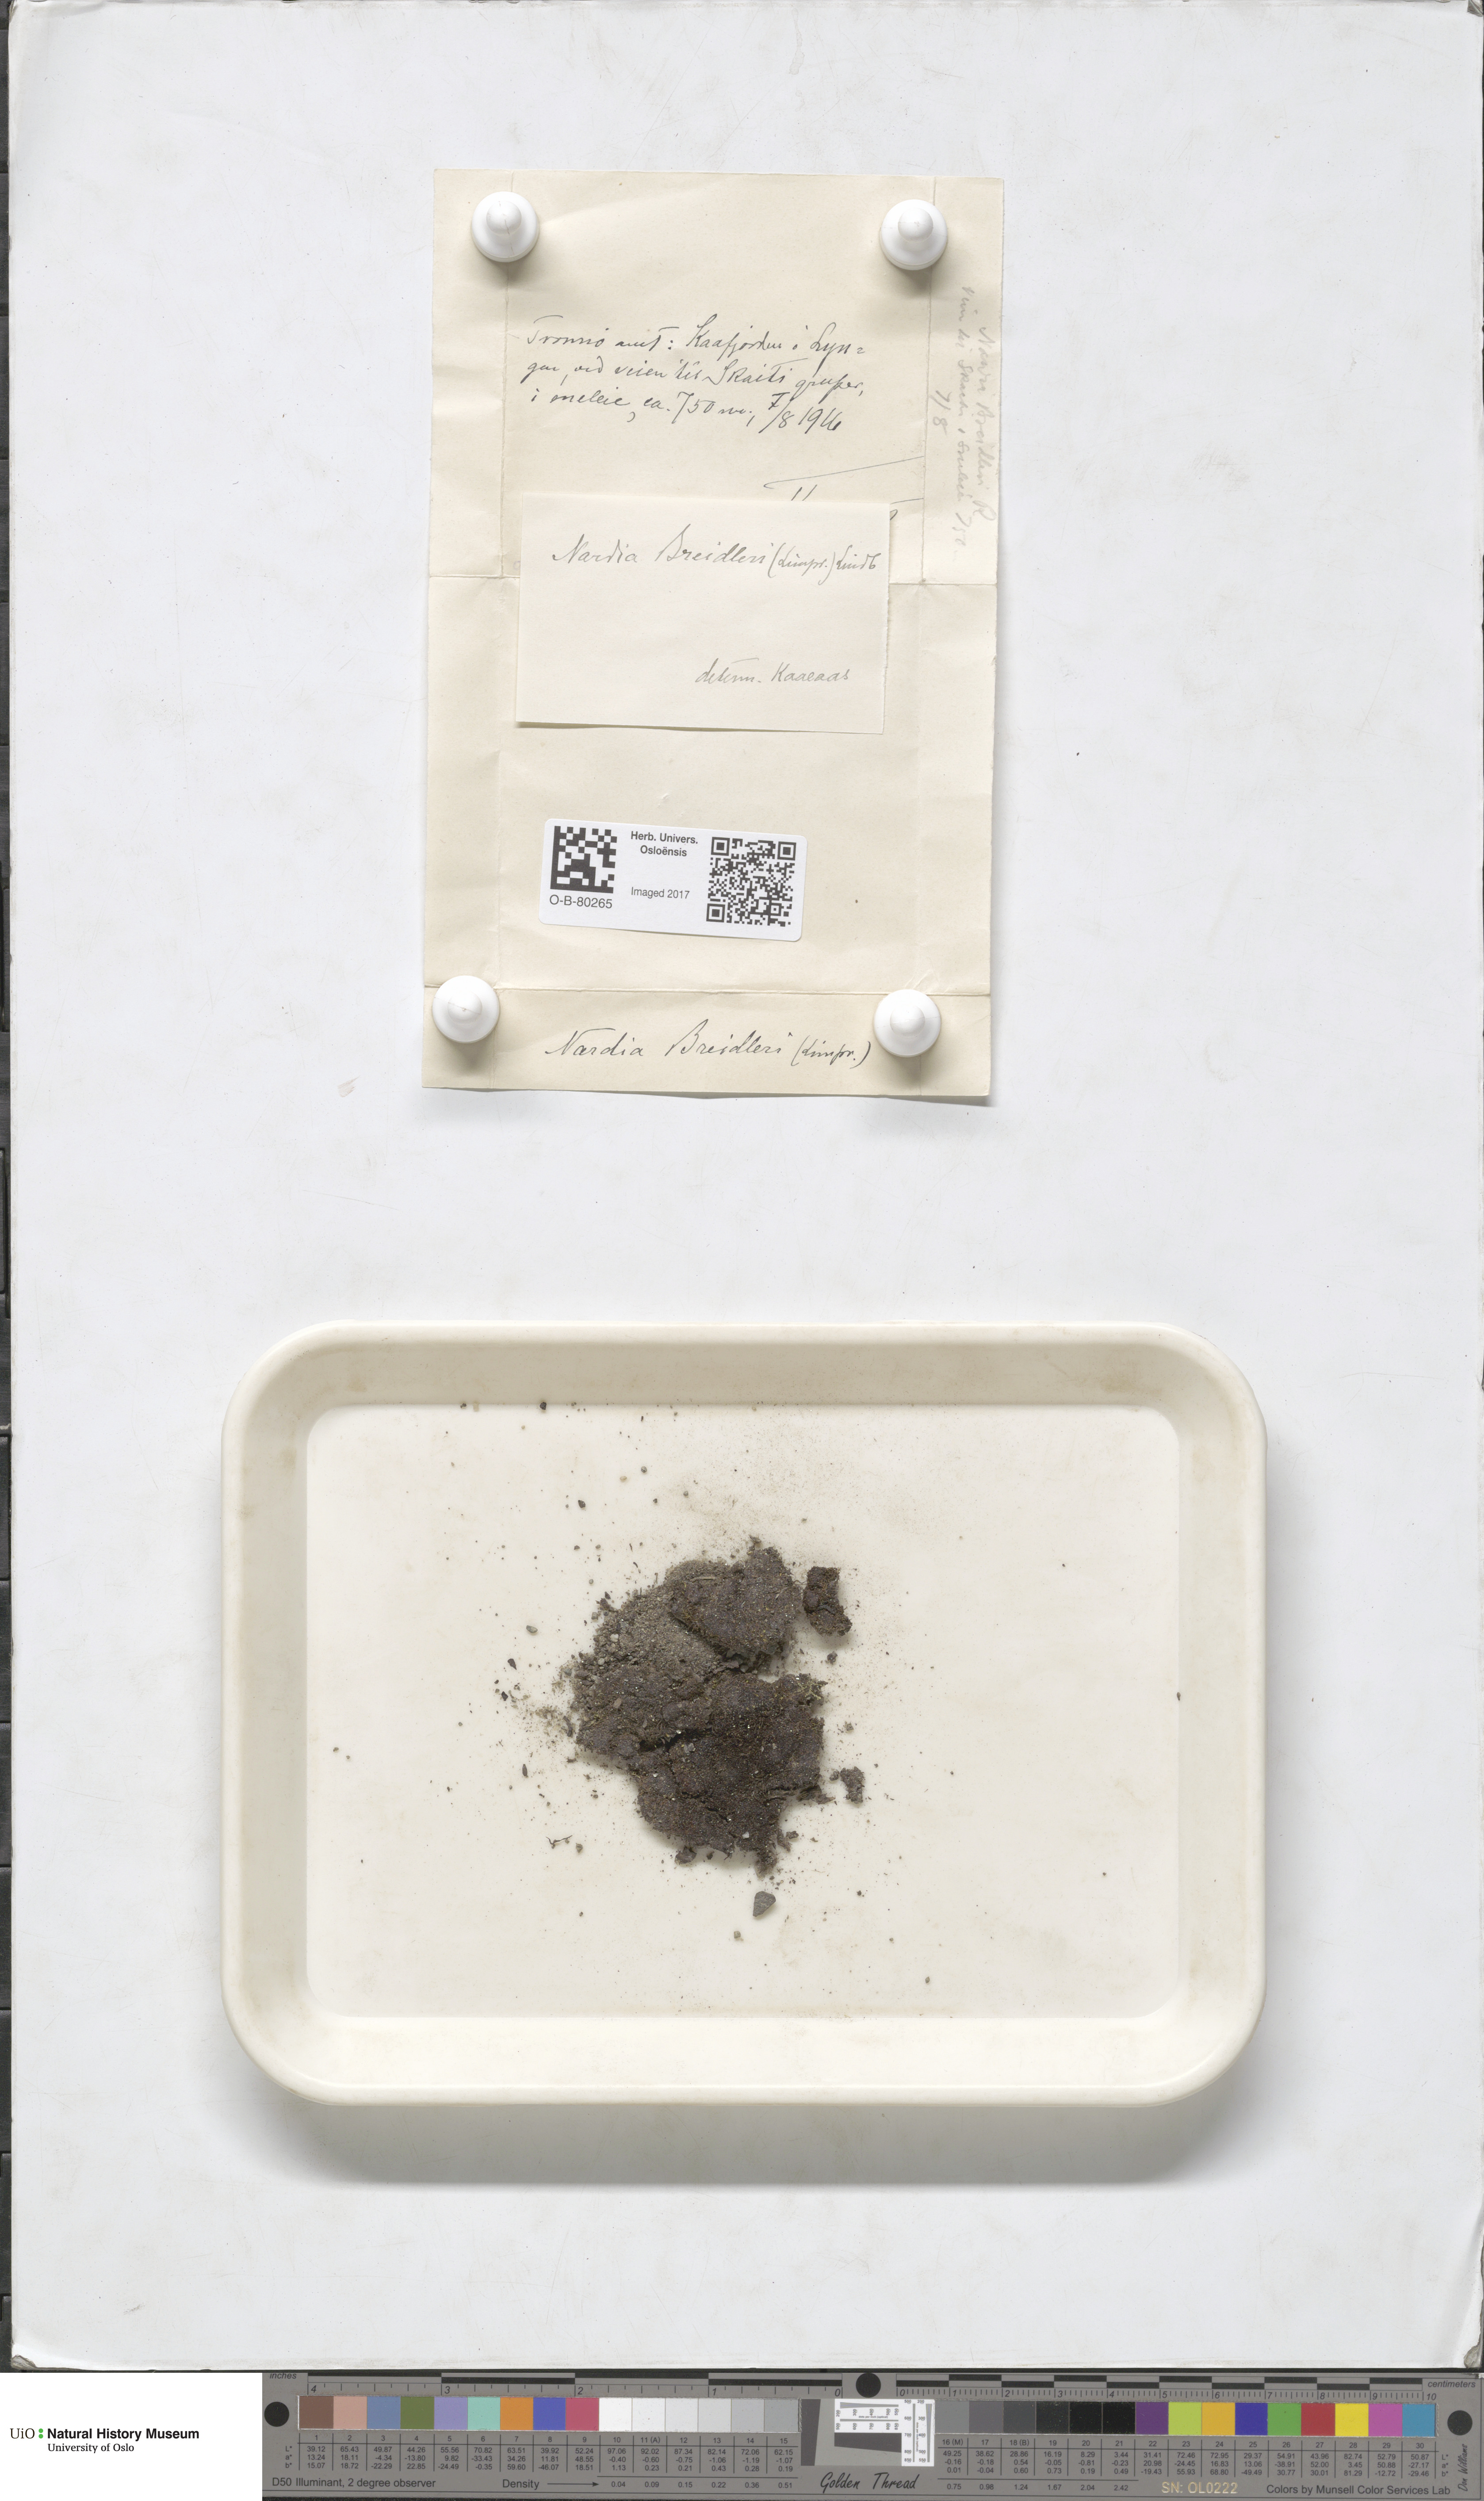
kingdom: Plantae
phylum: Marchantiophyta
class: Jungermanniopsida
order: Jungermanniales
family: Gymnomitriaceae
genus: Nardia
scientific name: Nardia breidleri
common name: Book flapwort
